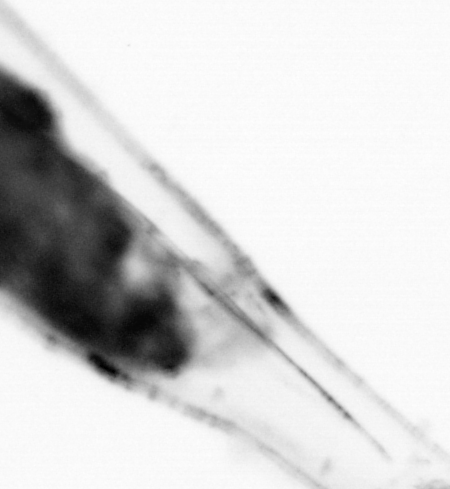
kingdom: Animalia
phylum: Chaetognatha
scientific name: Chaetognatha
